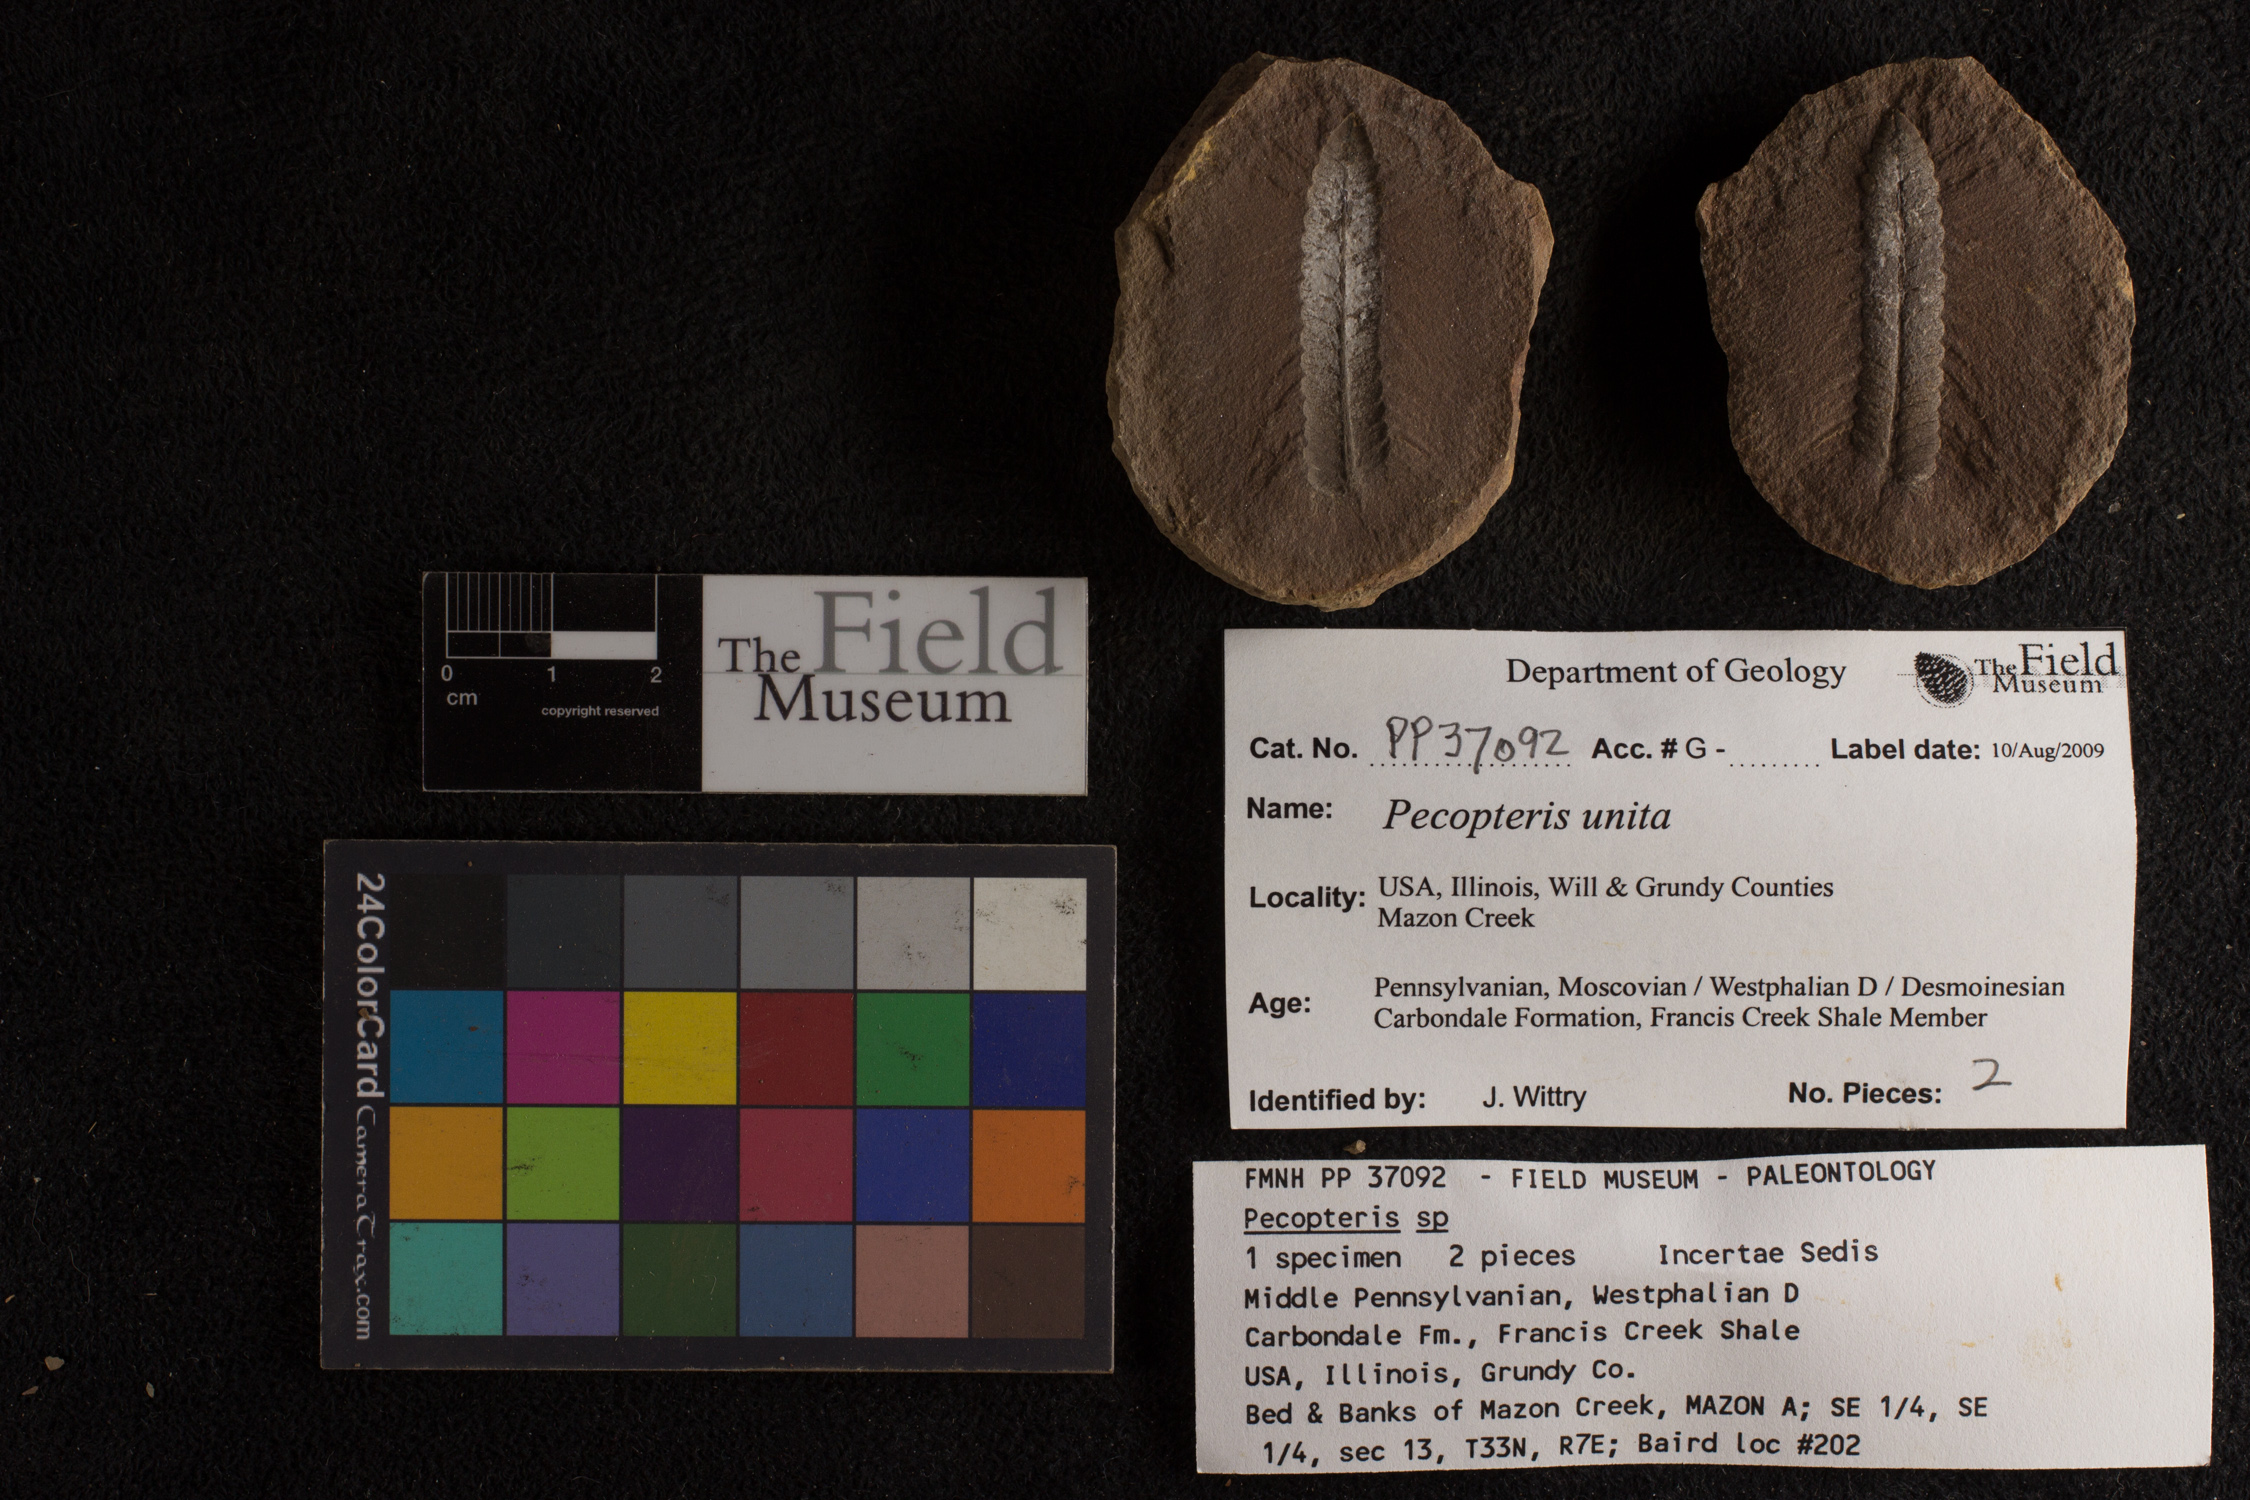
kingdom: Plantae
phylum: Tracheophyta
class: Polypodiopsida
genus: Diplazites
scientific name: Diplazites
